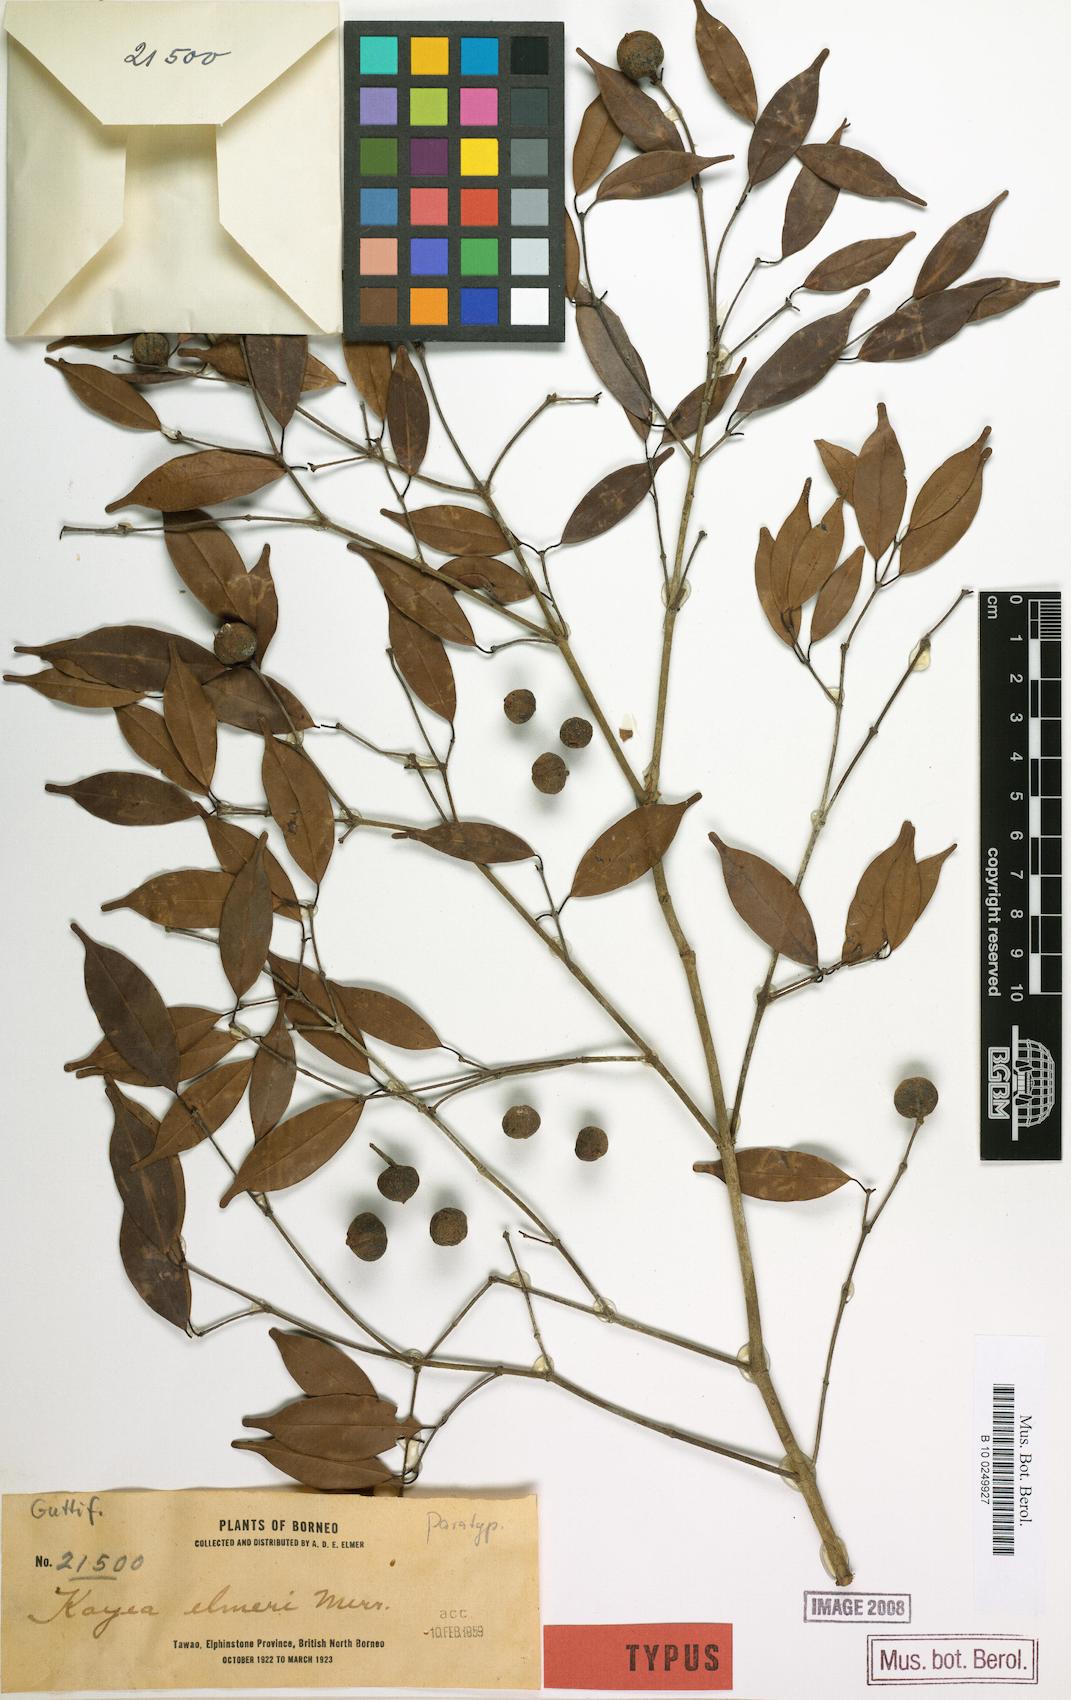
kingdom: Plantae
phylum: Tracheophyta
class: Magnoliopsida
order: Malpighiales
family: Calophyllaceae
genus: Kayea
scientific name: Kayea elmeri
